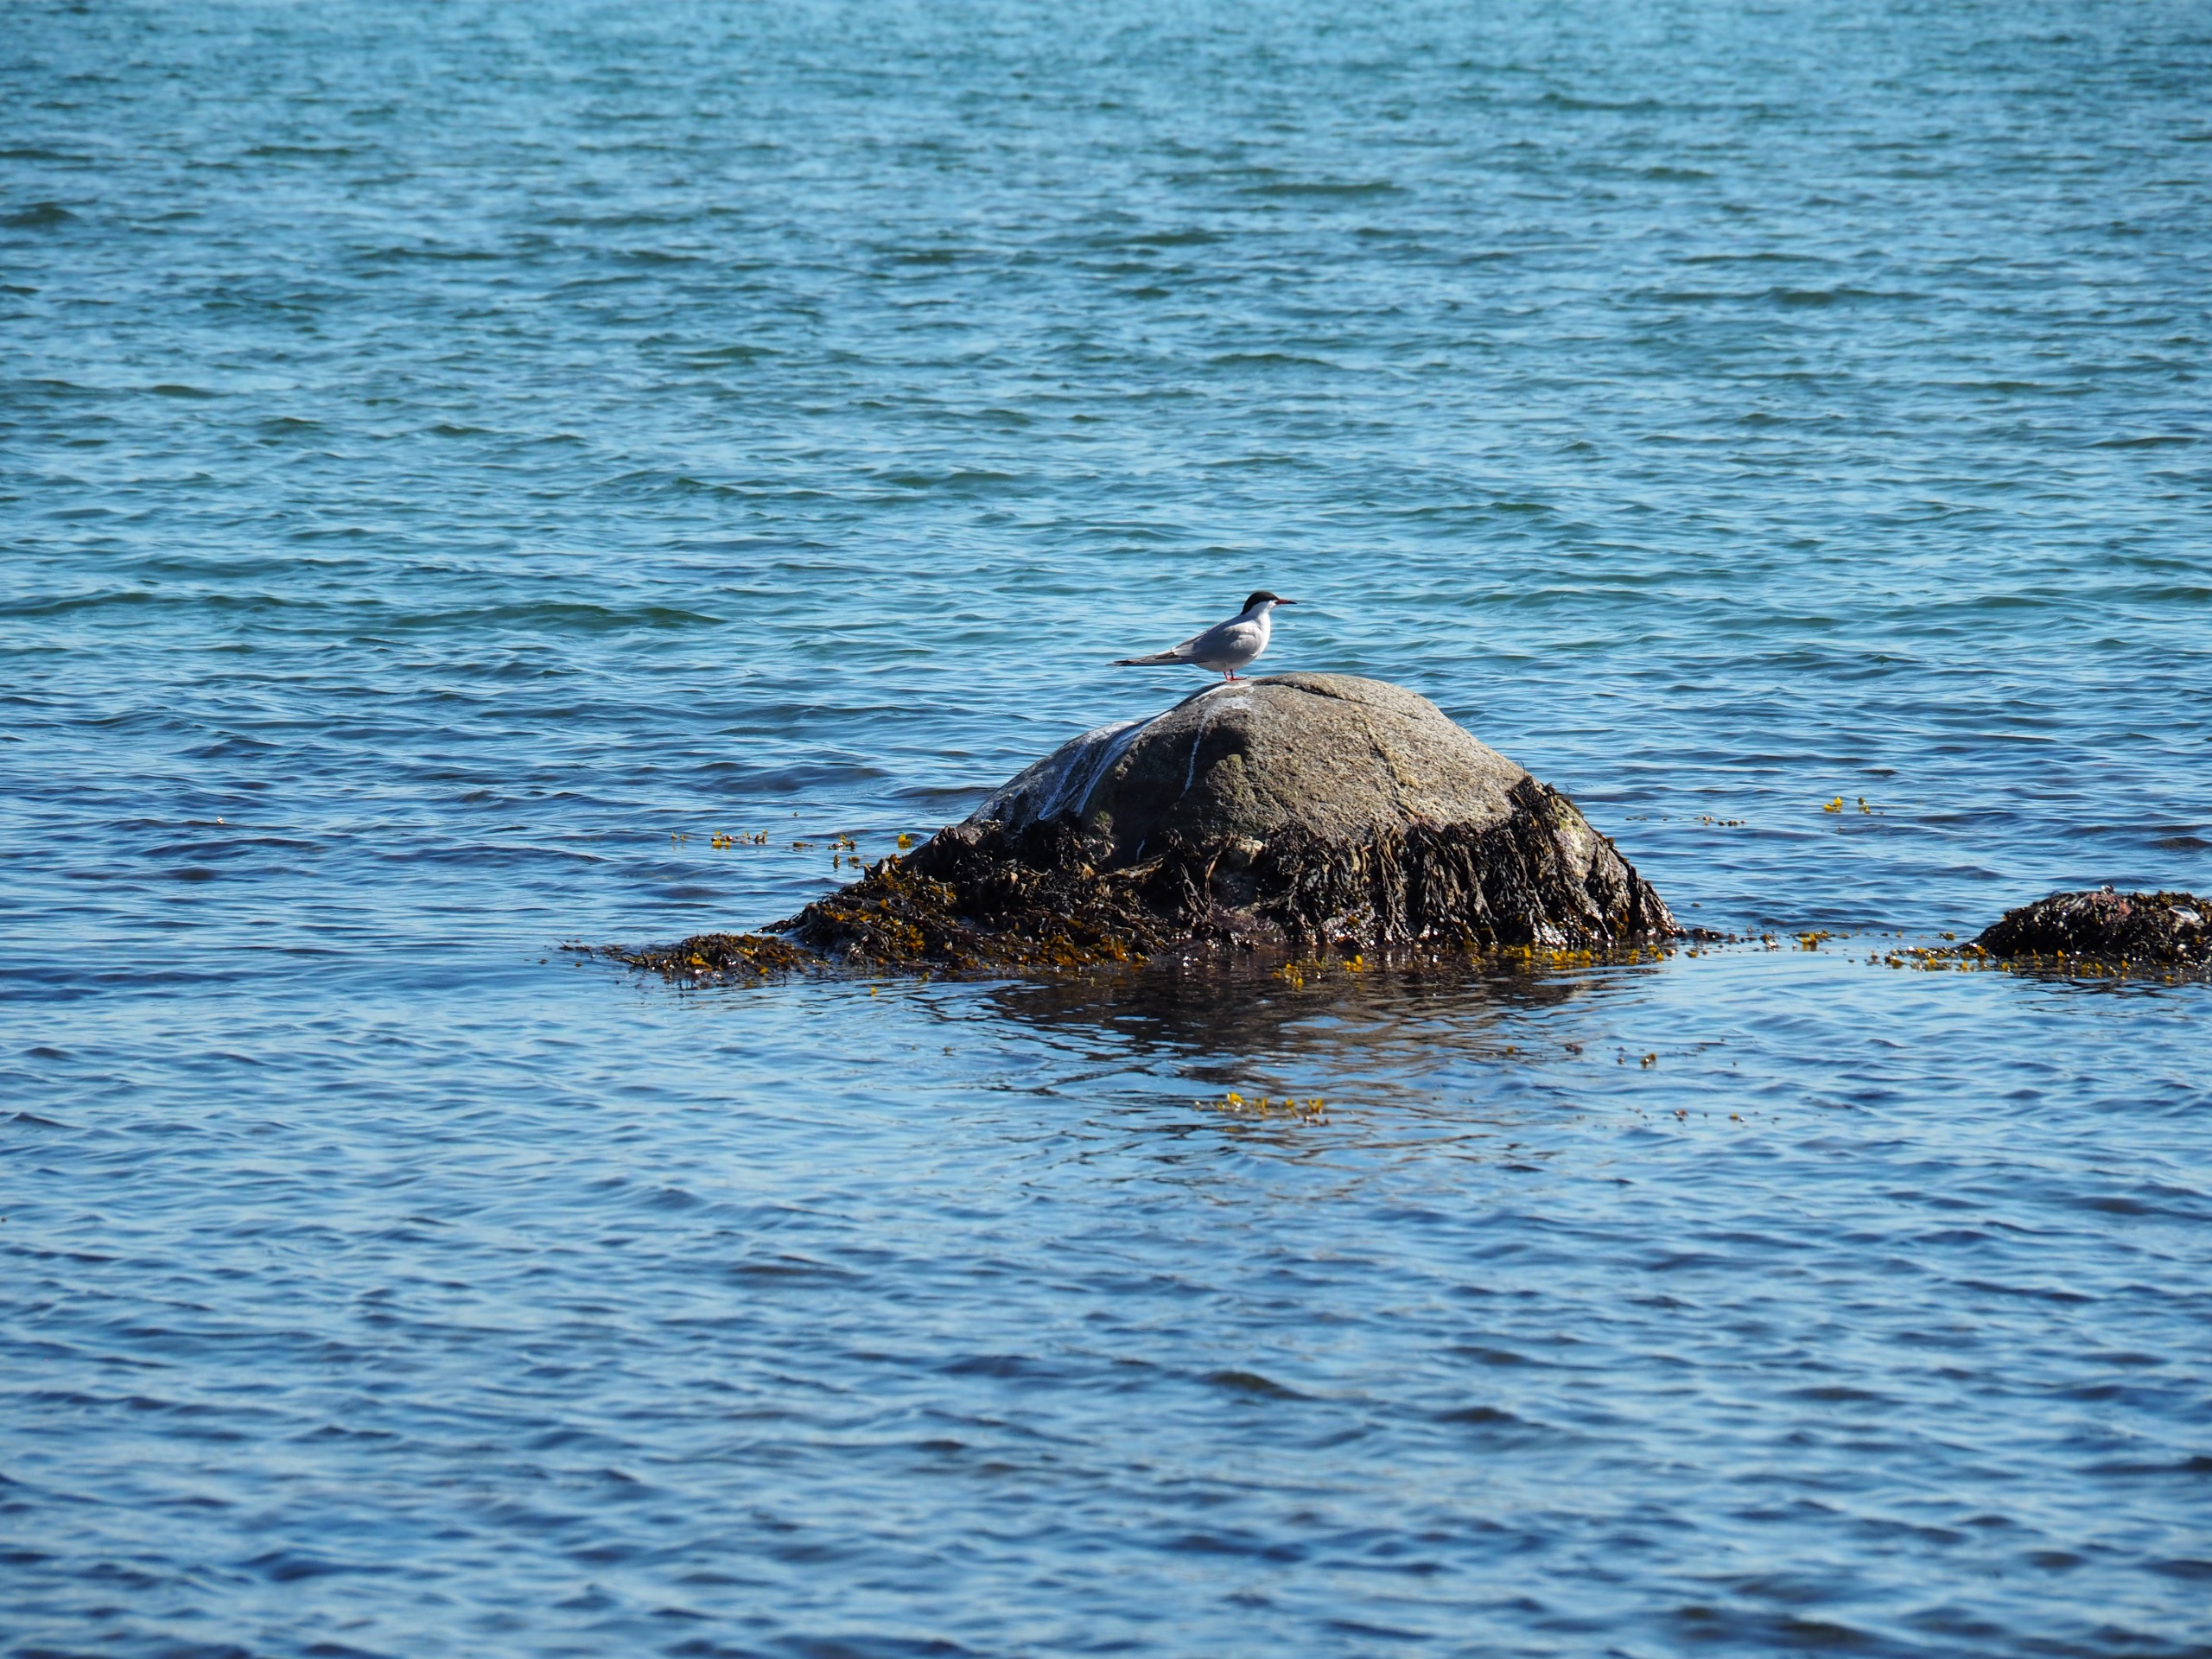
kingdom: Animalia
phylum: Chordata
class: Aves
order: Charadriiformes
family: Laridae
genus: Sterna
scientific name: Sterna hirundo
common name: Fjordterne
